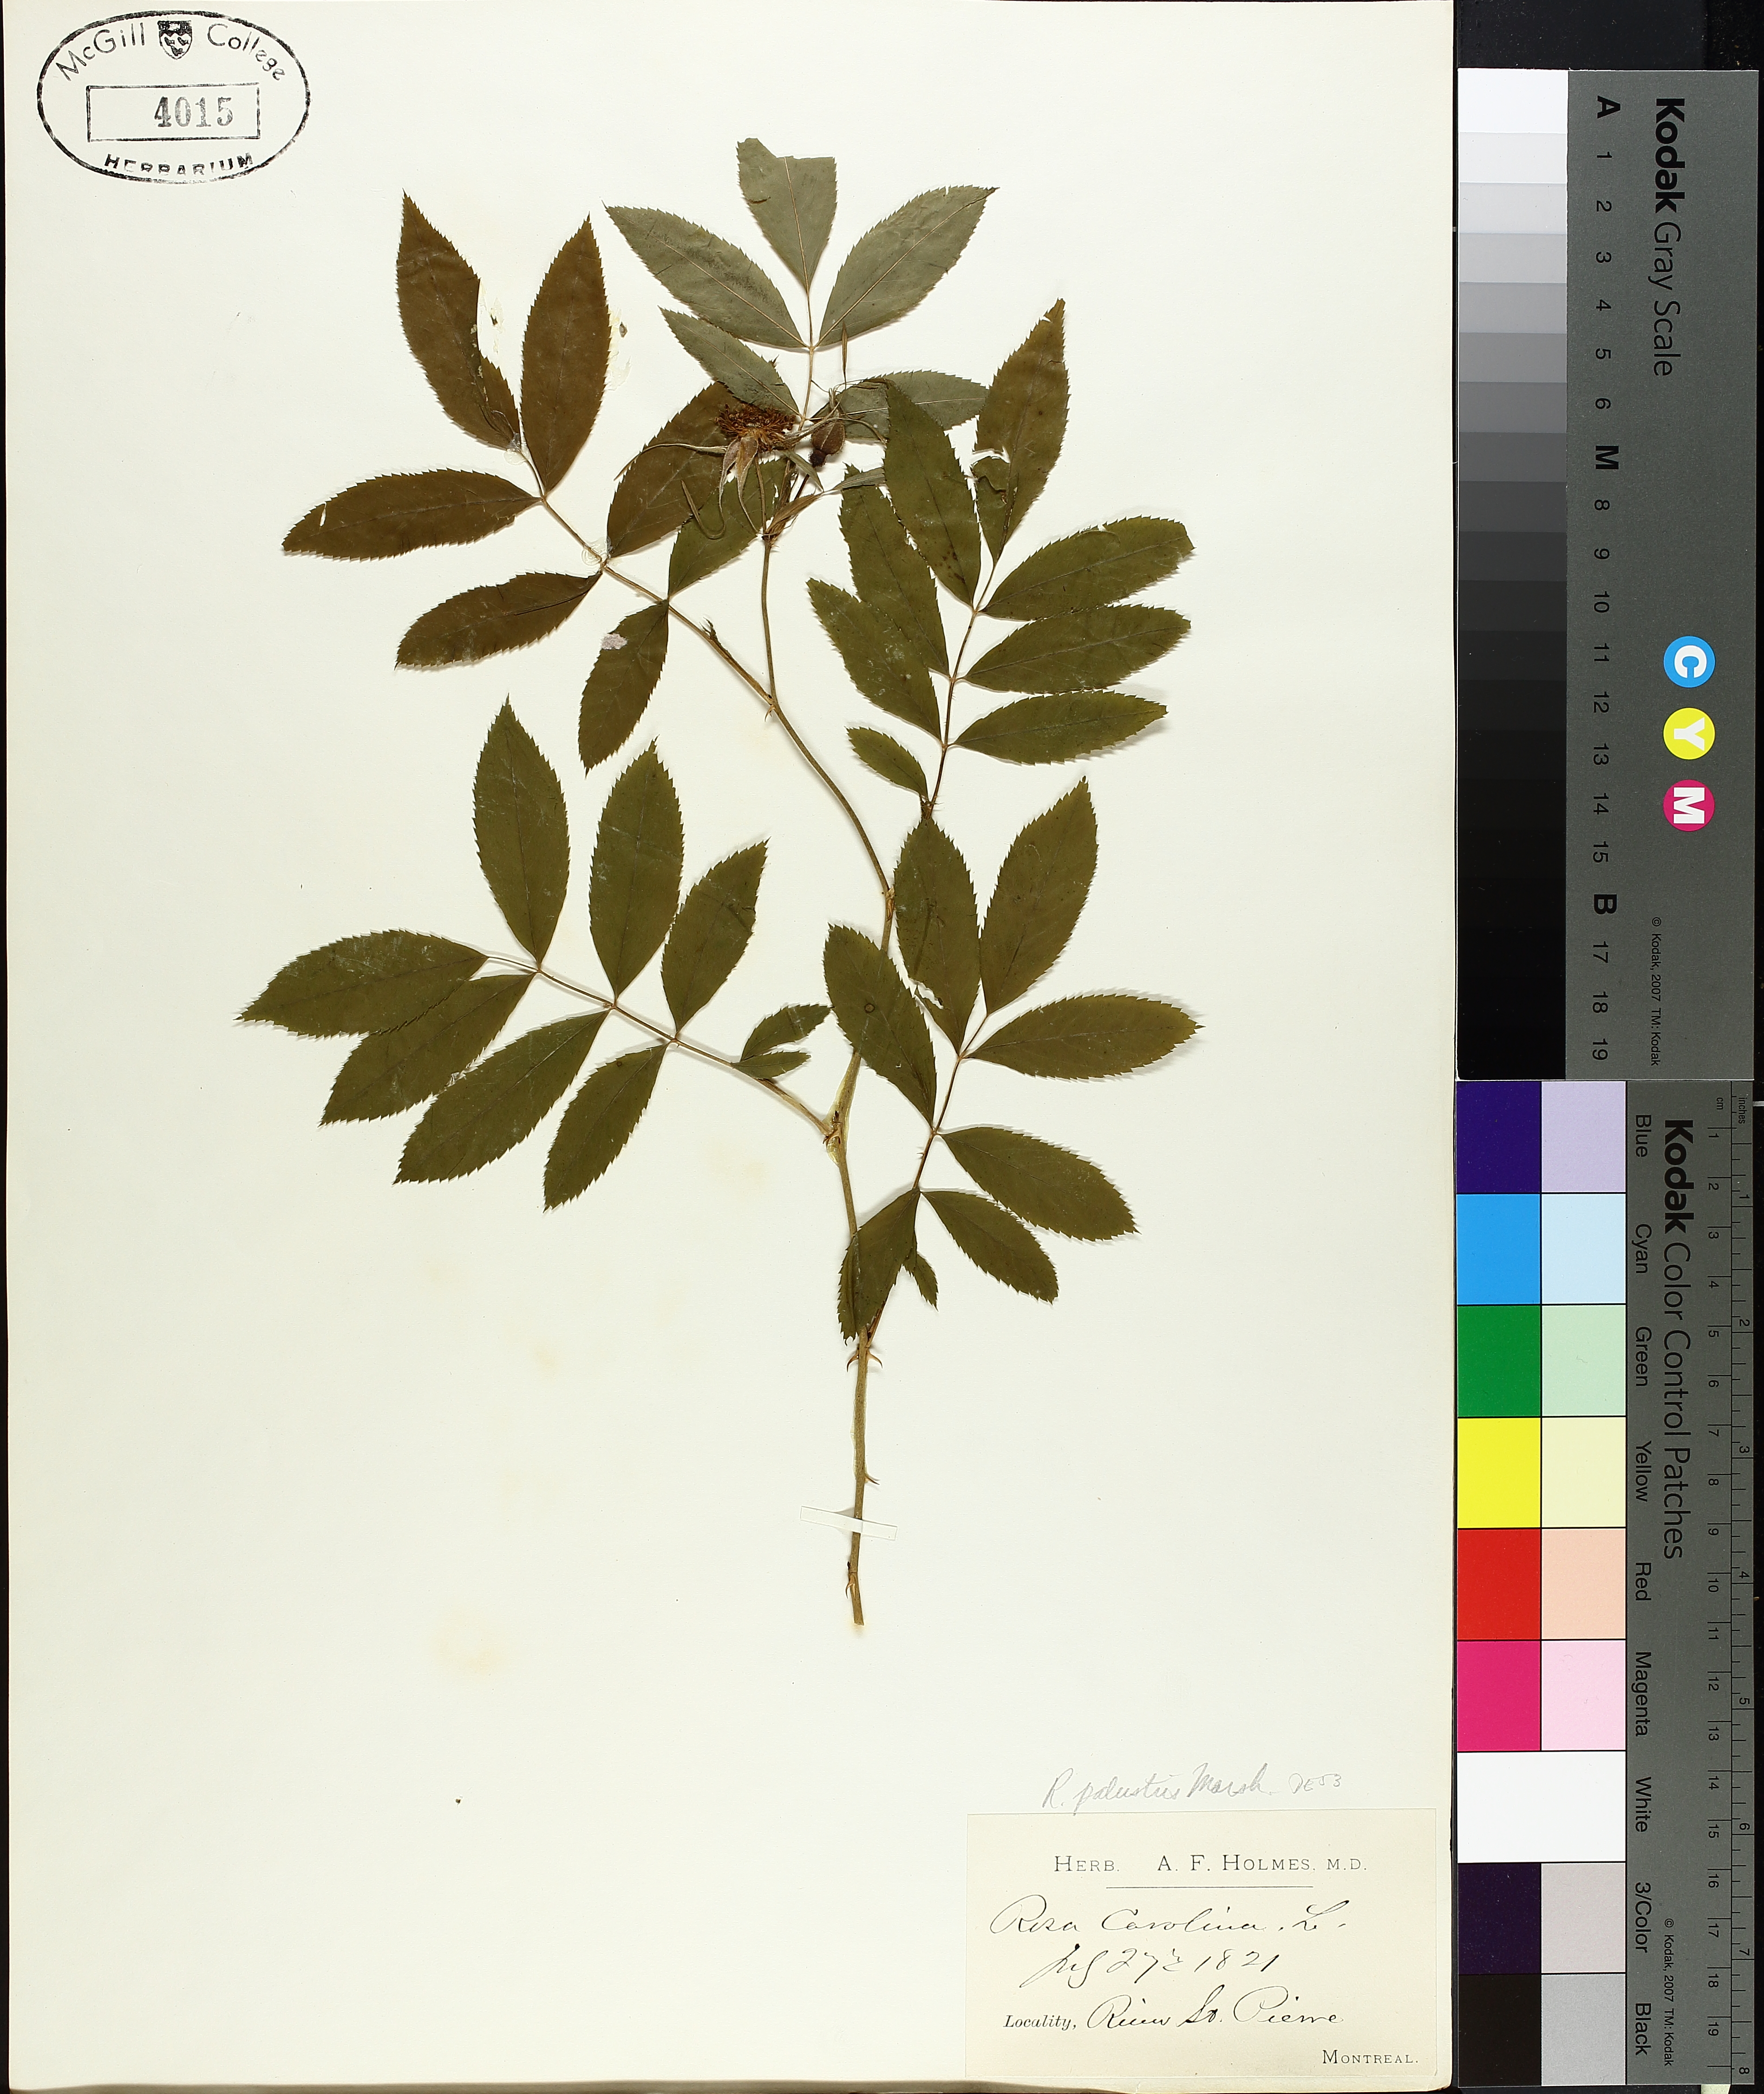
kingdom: Plantae
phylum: Tracheophyta
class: Magnoliopsida
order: Rosales
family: Rosaceae
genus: Rosa
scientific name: Rosa palustris
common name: Swamp rose
